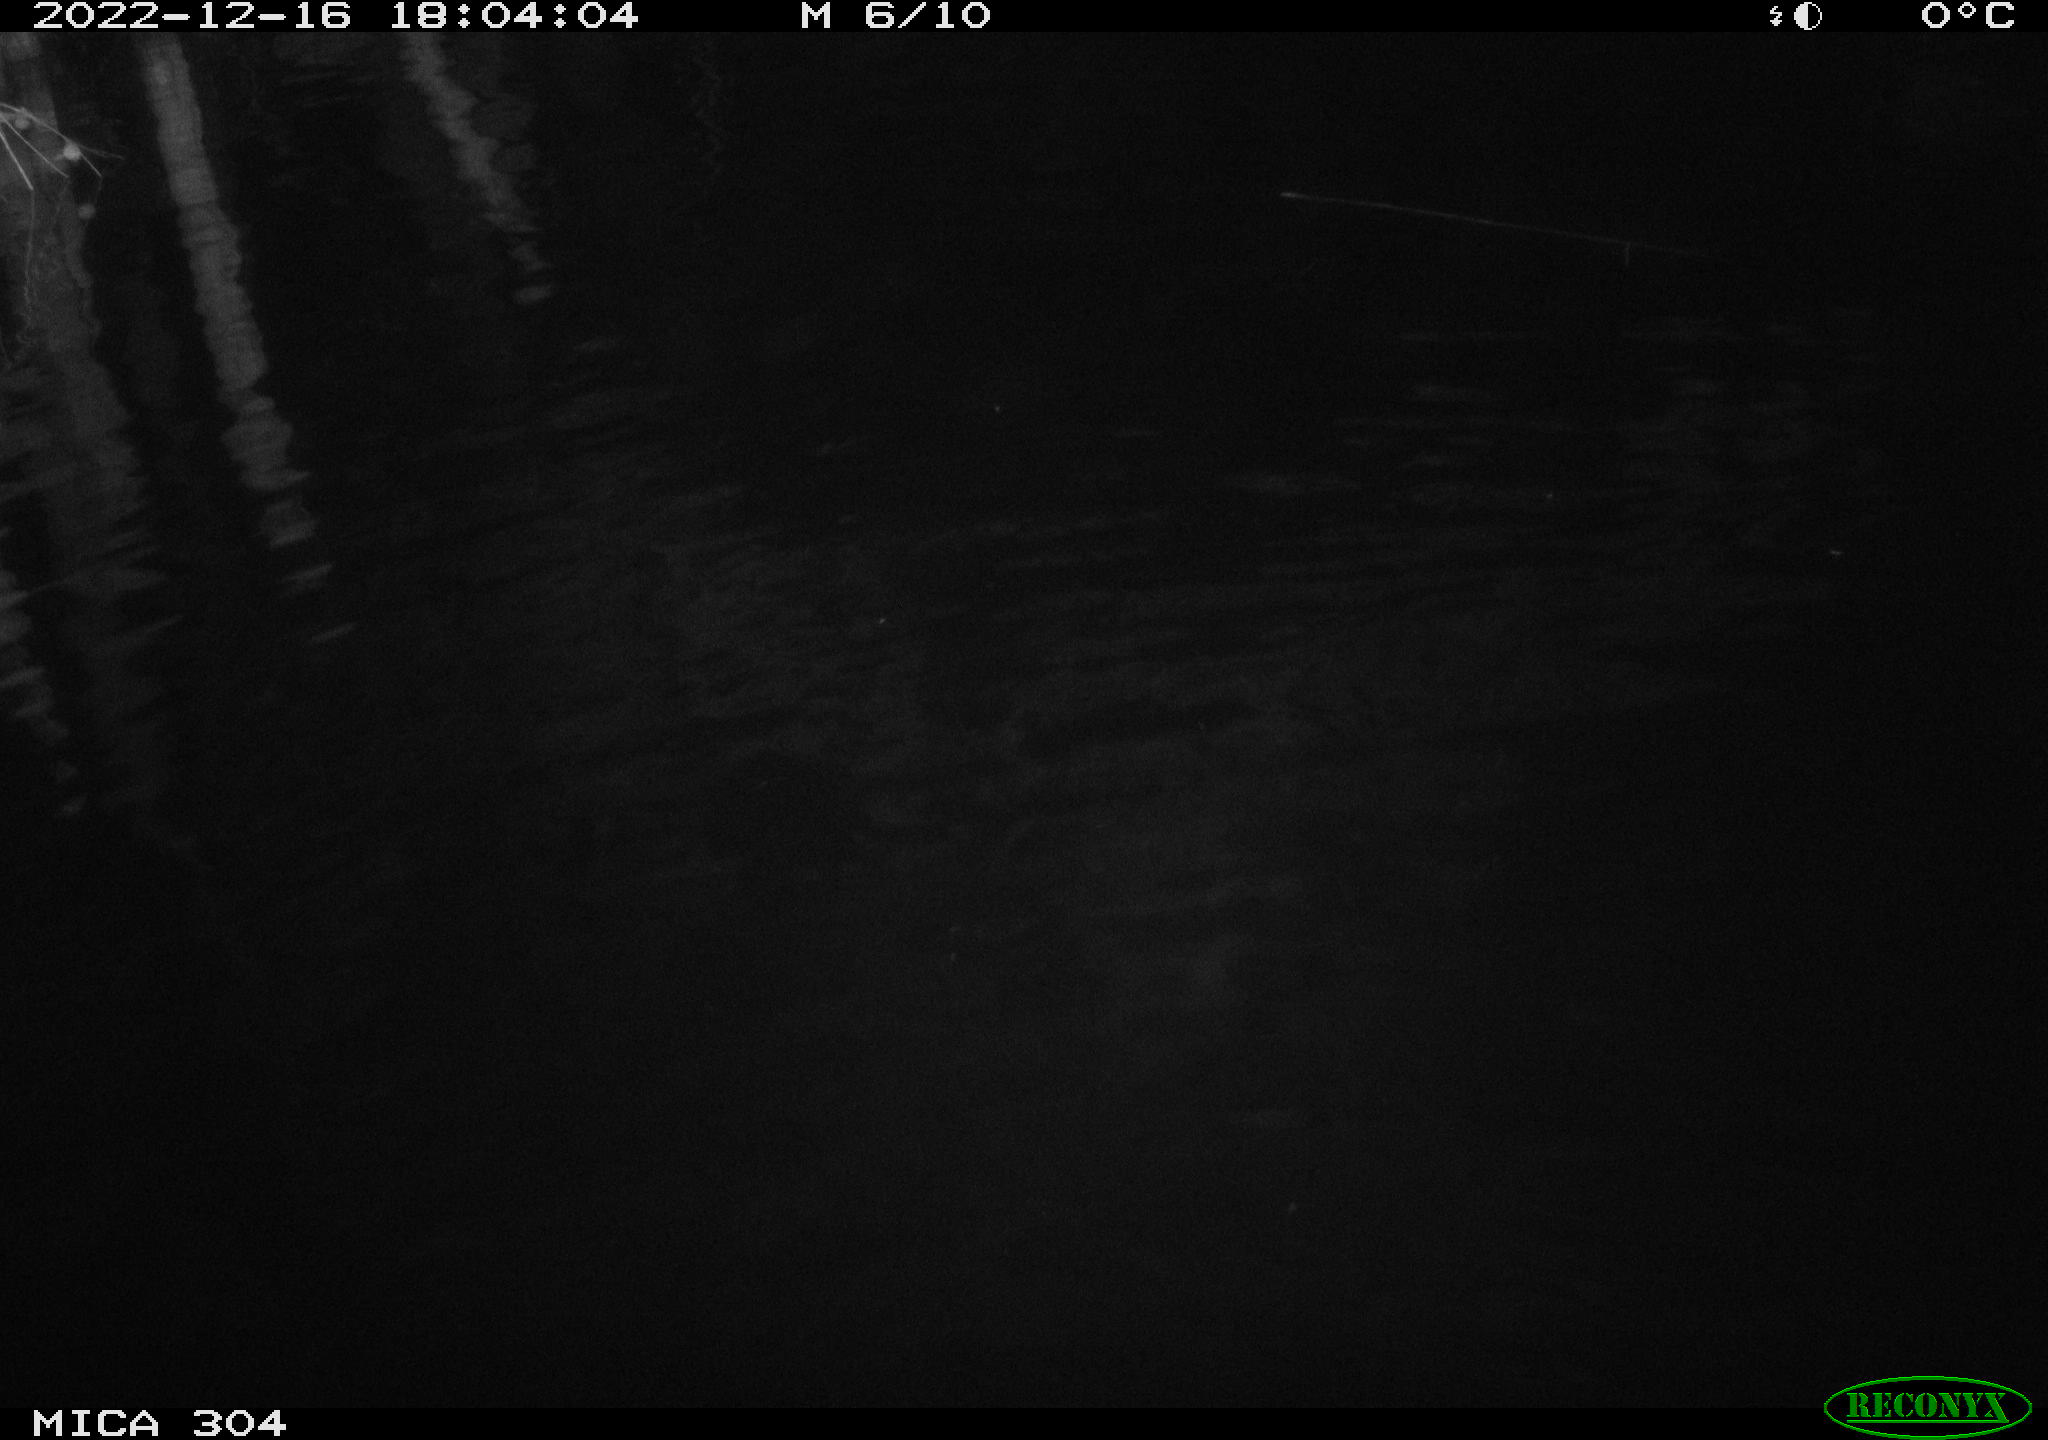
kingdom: Animalia
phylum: Chordata
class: Aves
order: Anseriformes
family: Anatidae
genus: Anas
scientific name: Anas
